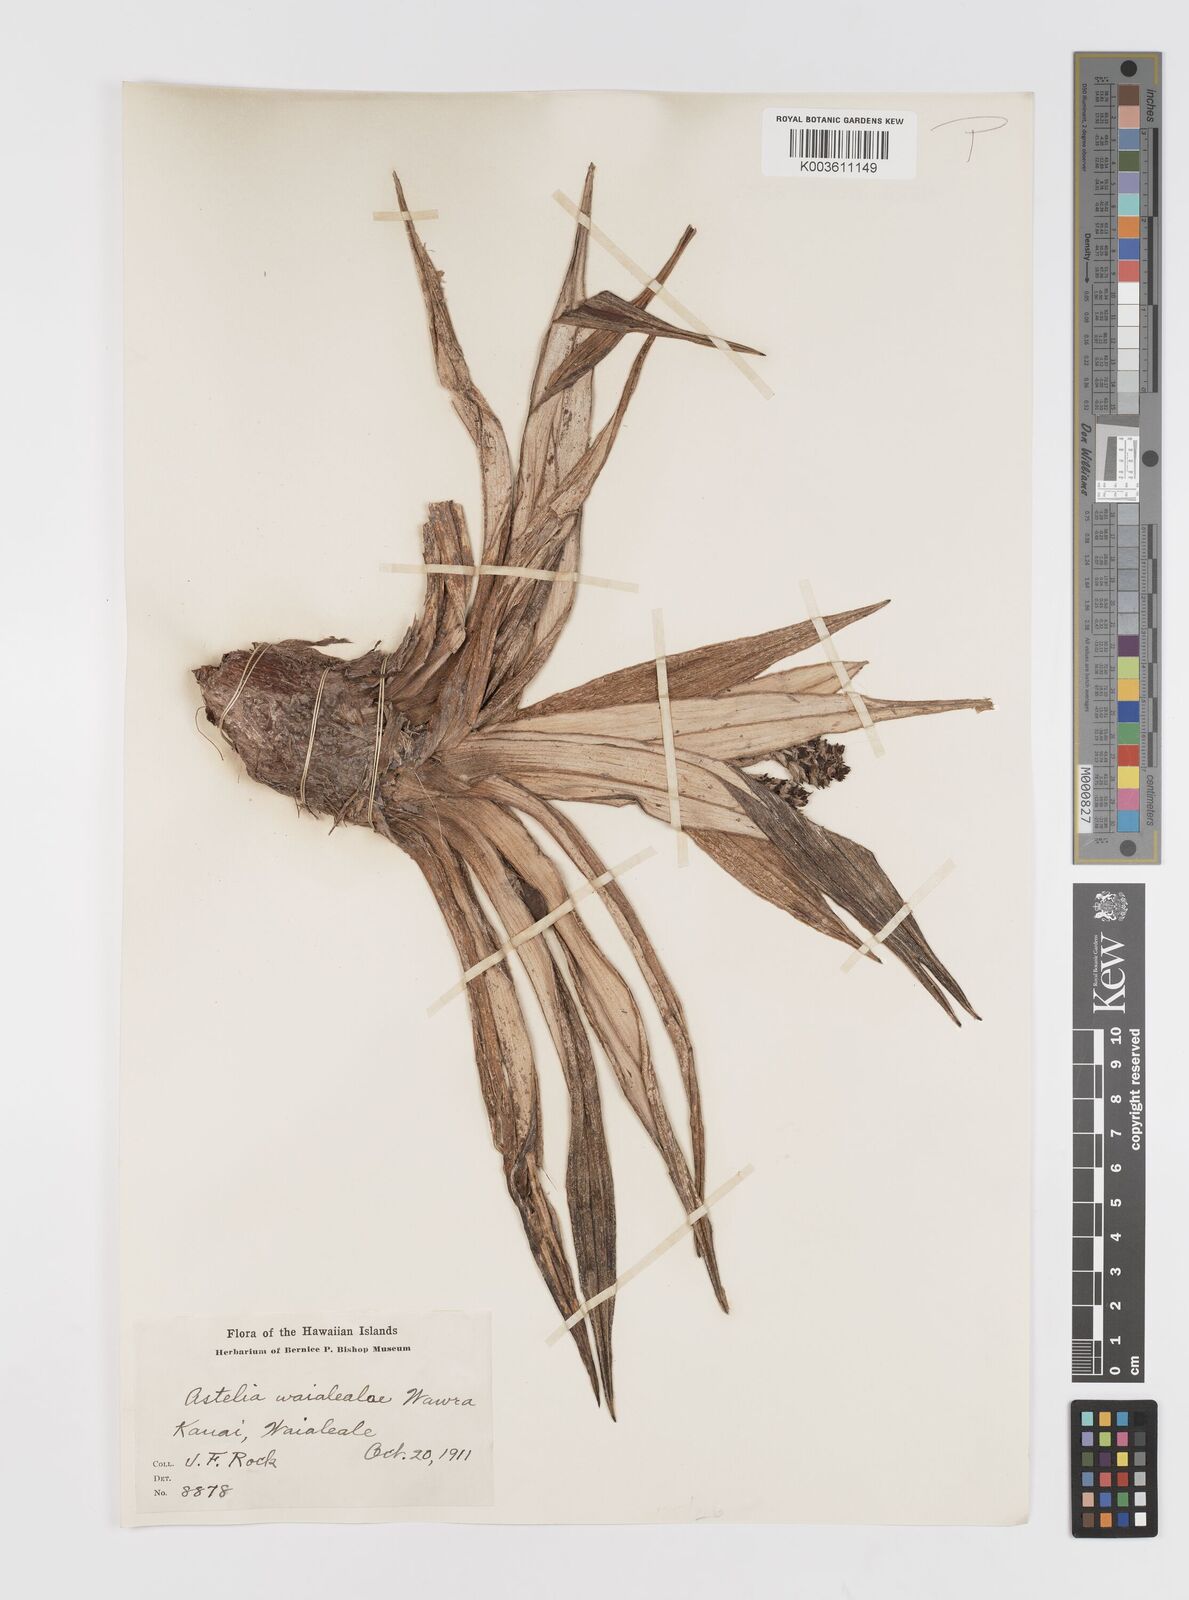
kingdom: Plantae
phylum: Tracheophyta
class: Liliopsida
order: Asparagales
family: Asteliaceae
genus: Astelia
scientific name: Astelia waialealae
